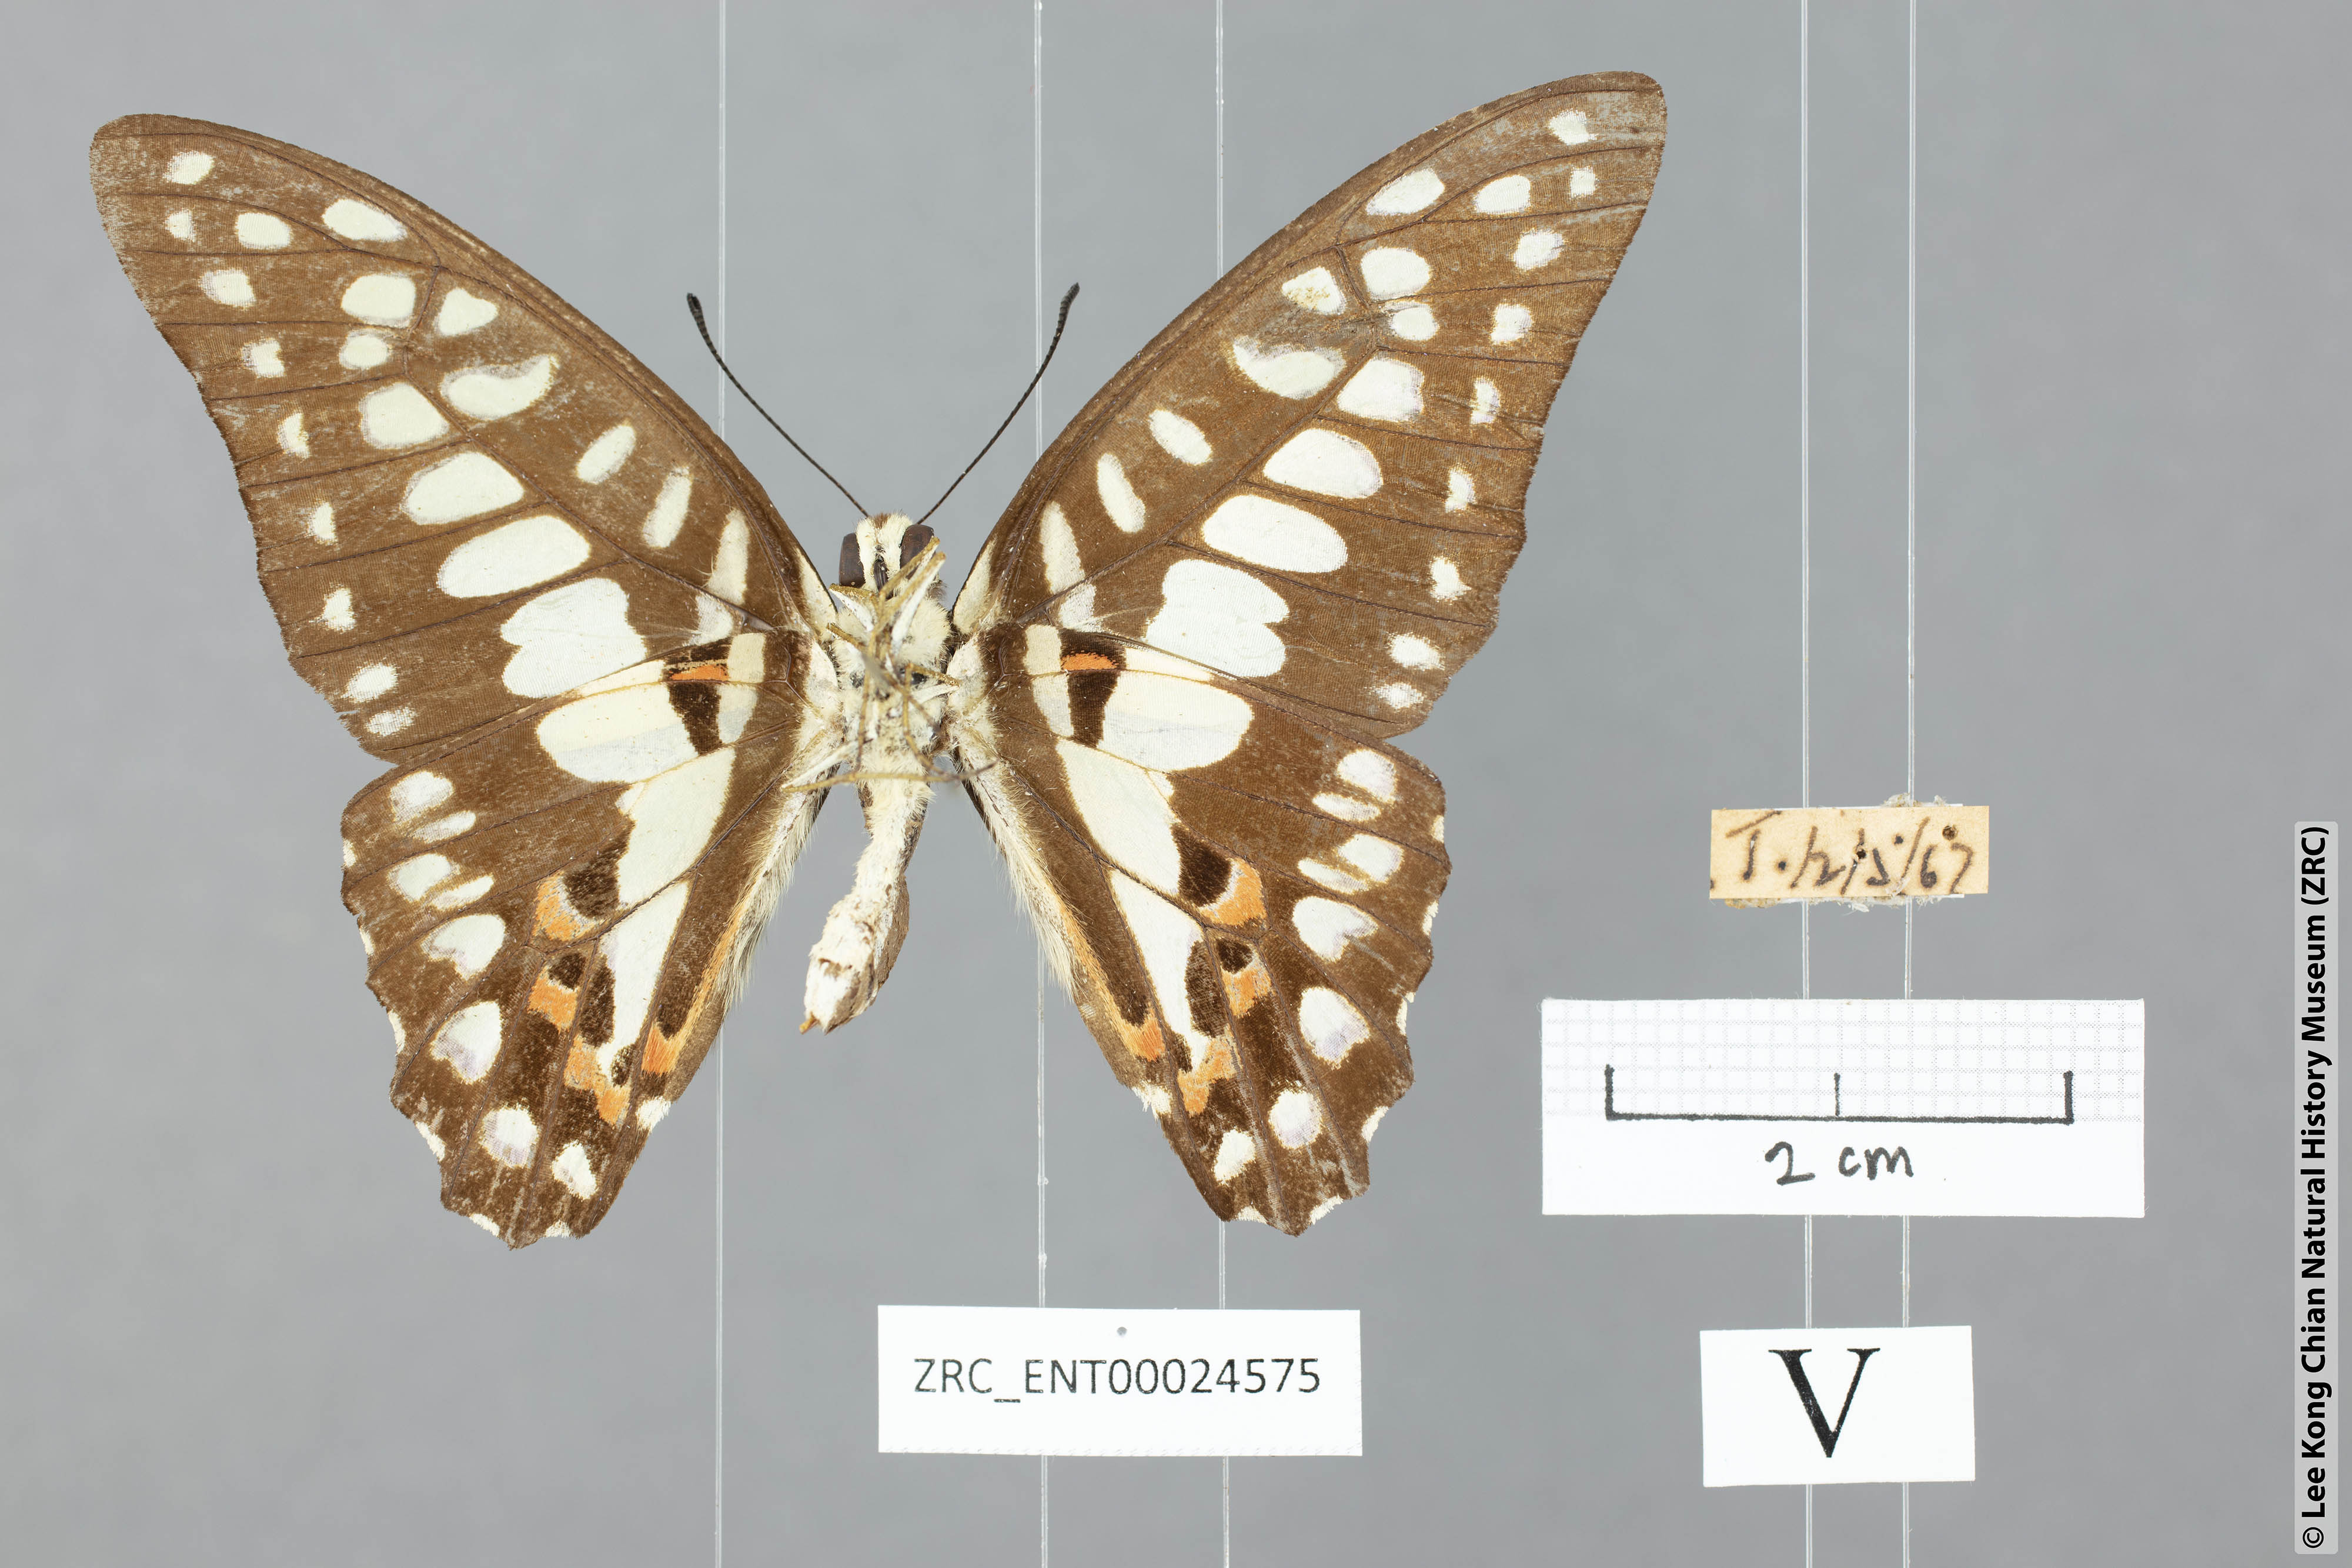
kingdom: Animalia
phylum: Arthropoda
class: Insecta
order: Lepidoptera
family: Papilionidae
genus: Graphium
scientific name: Graphium doson
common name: Common jay
